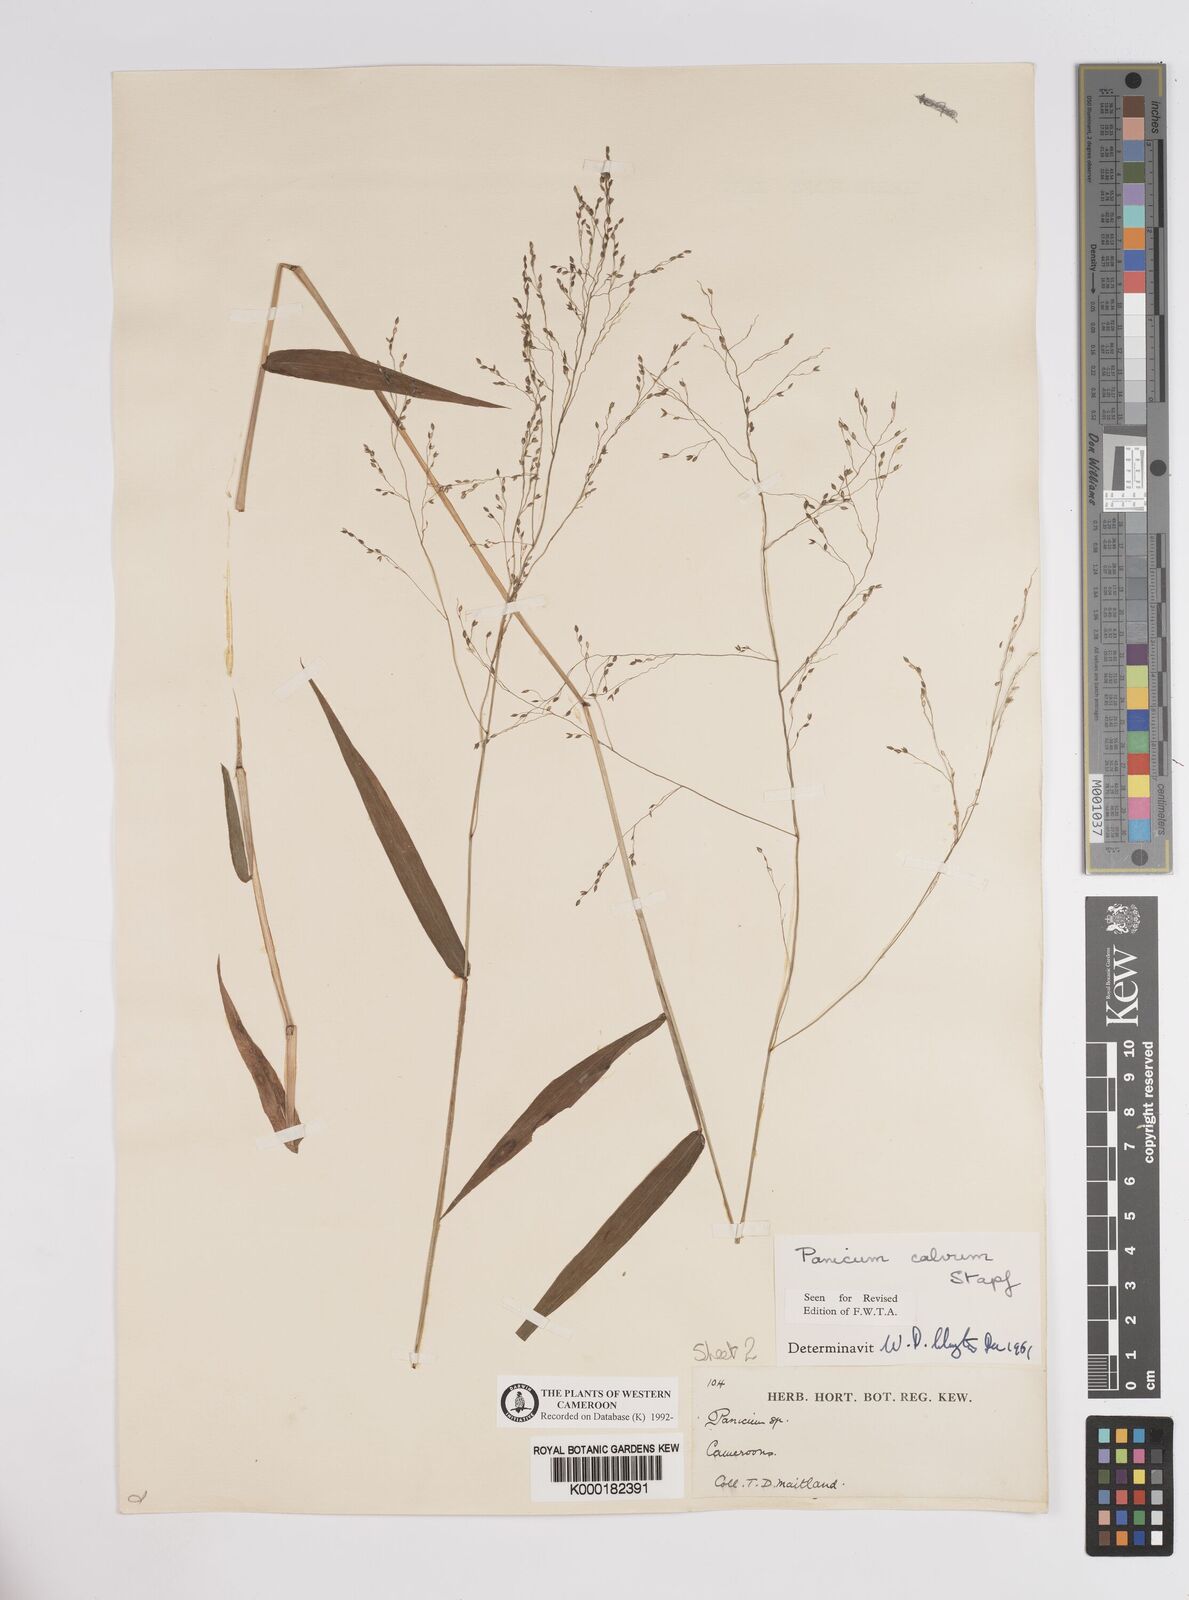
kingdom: Plantae
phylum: Tracheophyta
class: Liliopsida
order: Poales
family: Poaceae
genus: Panicum
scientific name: Panicum calvum
